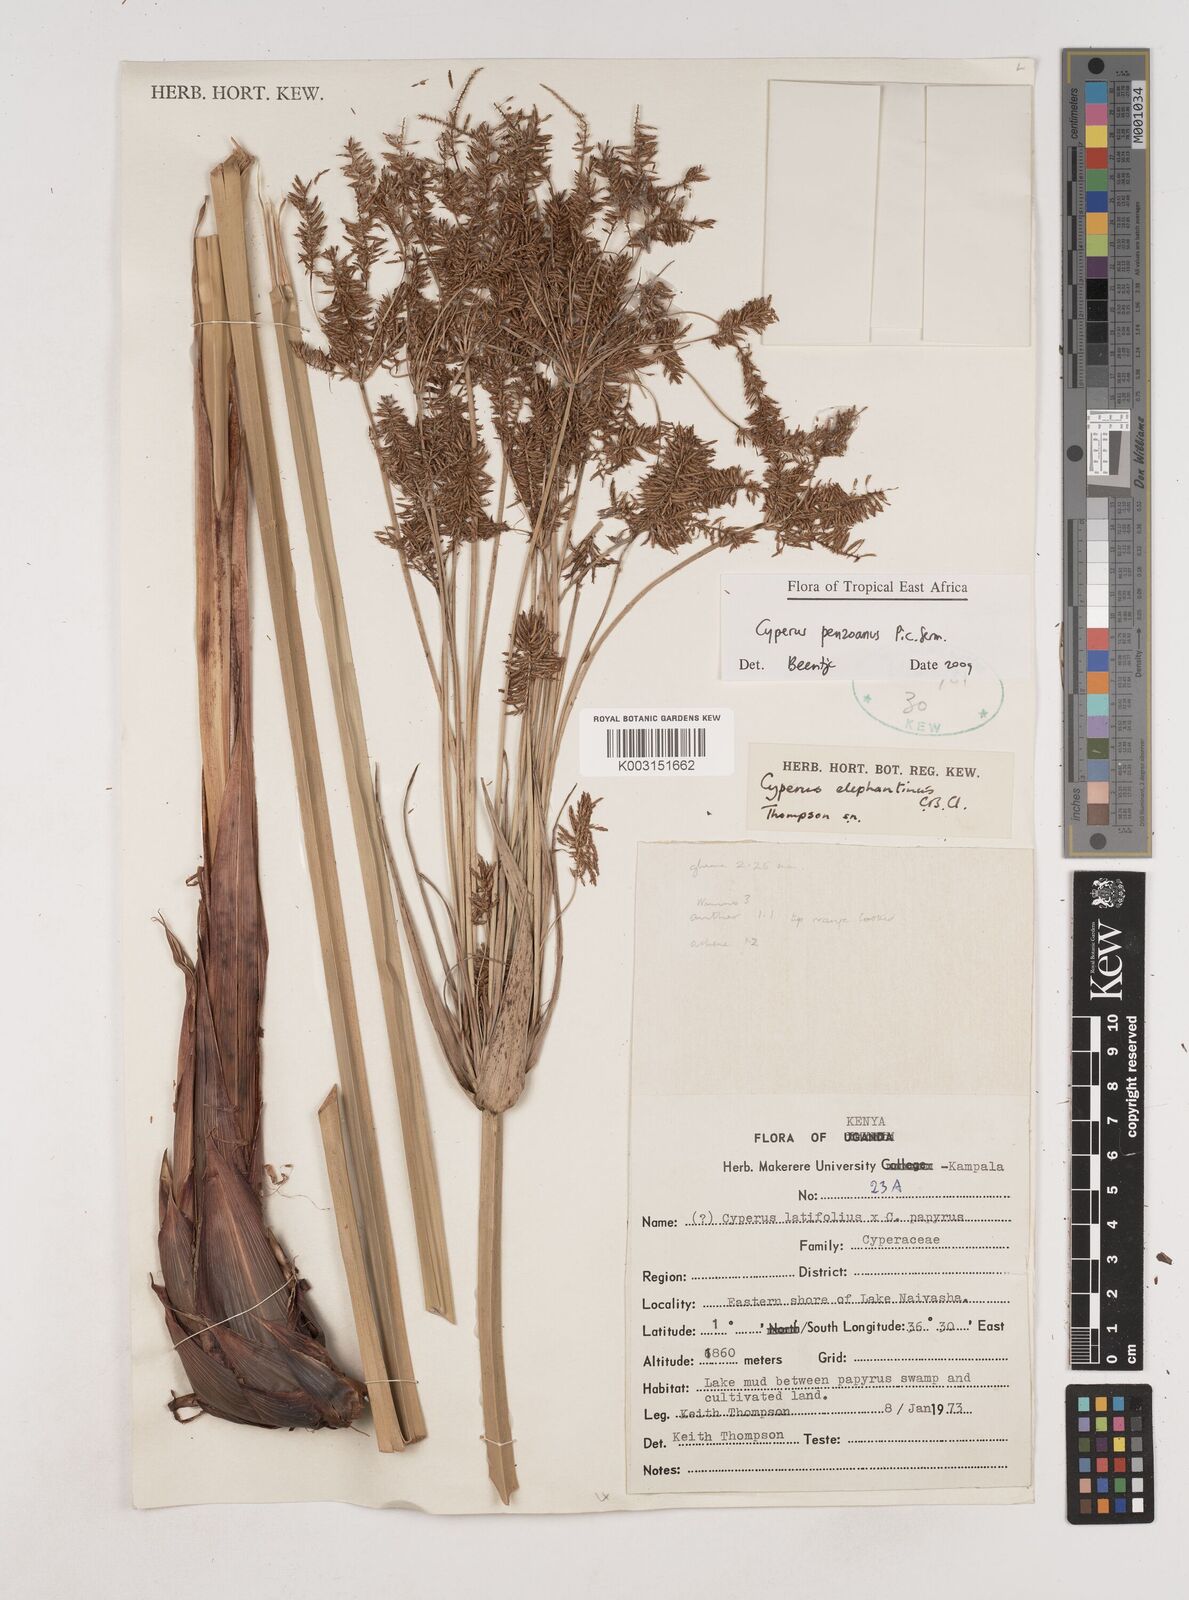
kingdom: Plantae
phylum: Tracheophyta
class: Liliopsida
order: Poales
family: Cyperaceae
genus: Cyperus
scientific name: Cyperus penzoanus
